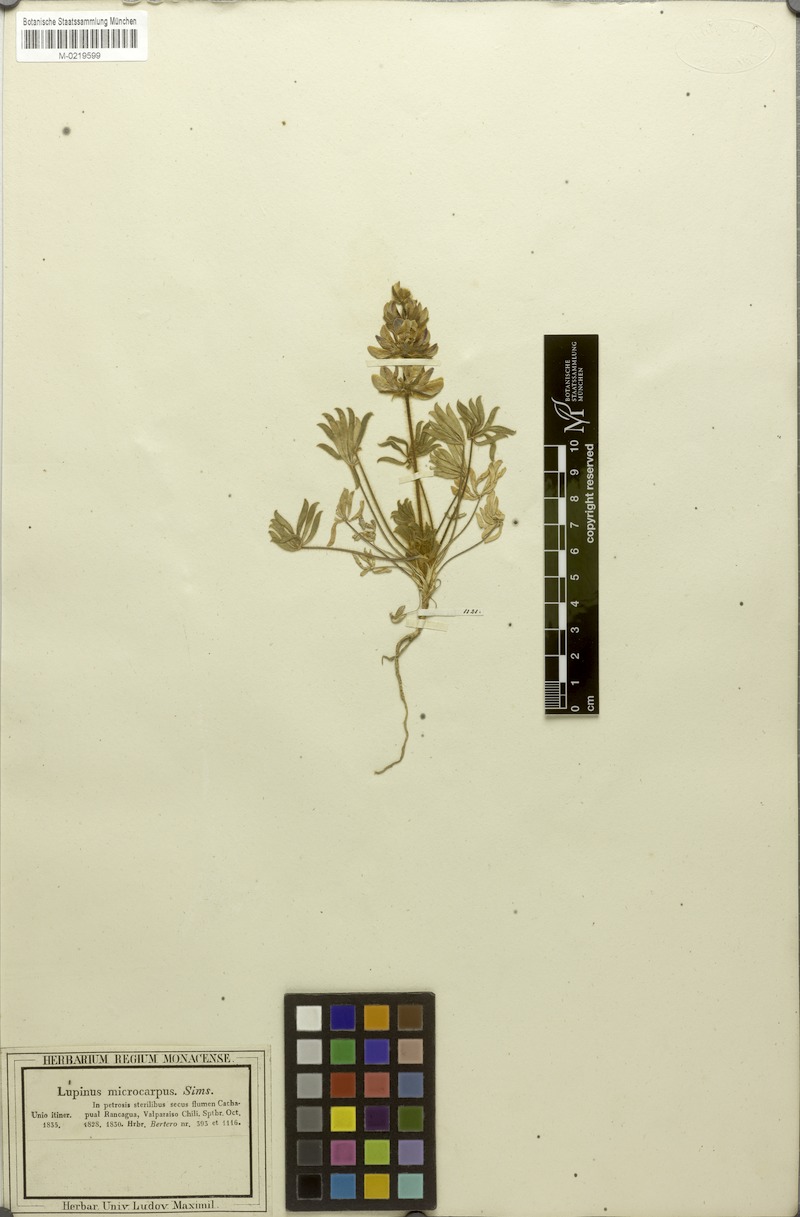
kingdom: Plantae
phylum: Tracheophyta
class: Magnoliopsida
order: Fabales
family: Fabaceae
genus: Lupinus
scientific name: Lupinus microcarpus
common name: Chick lupine
